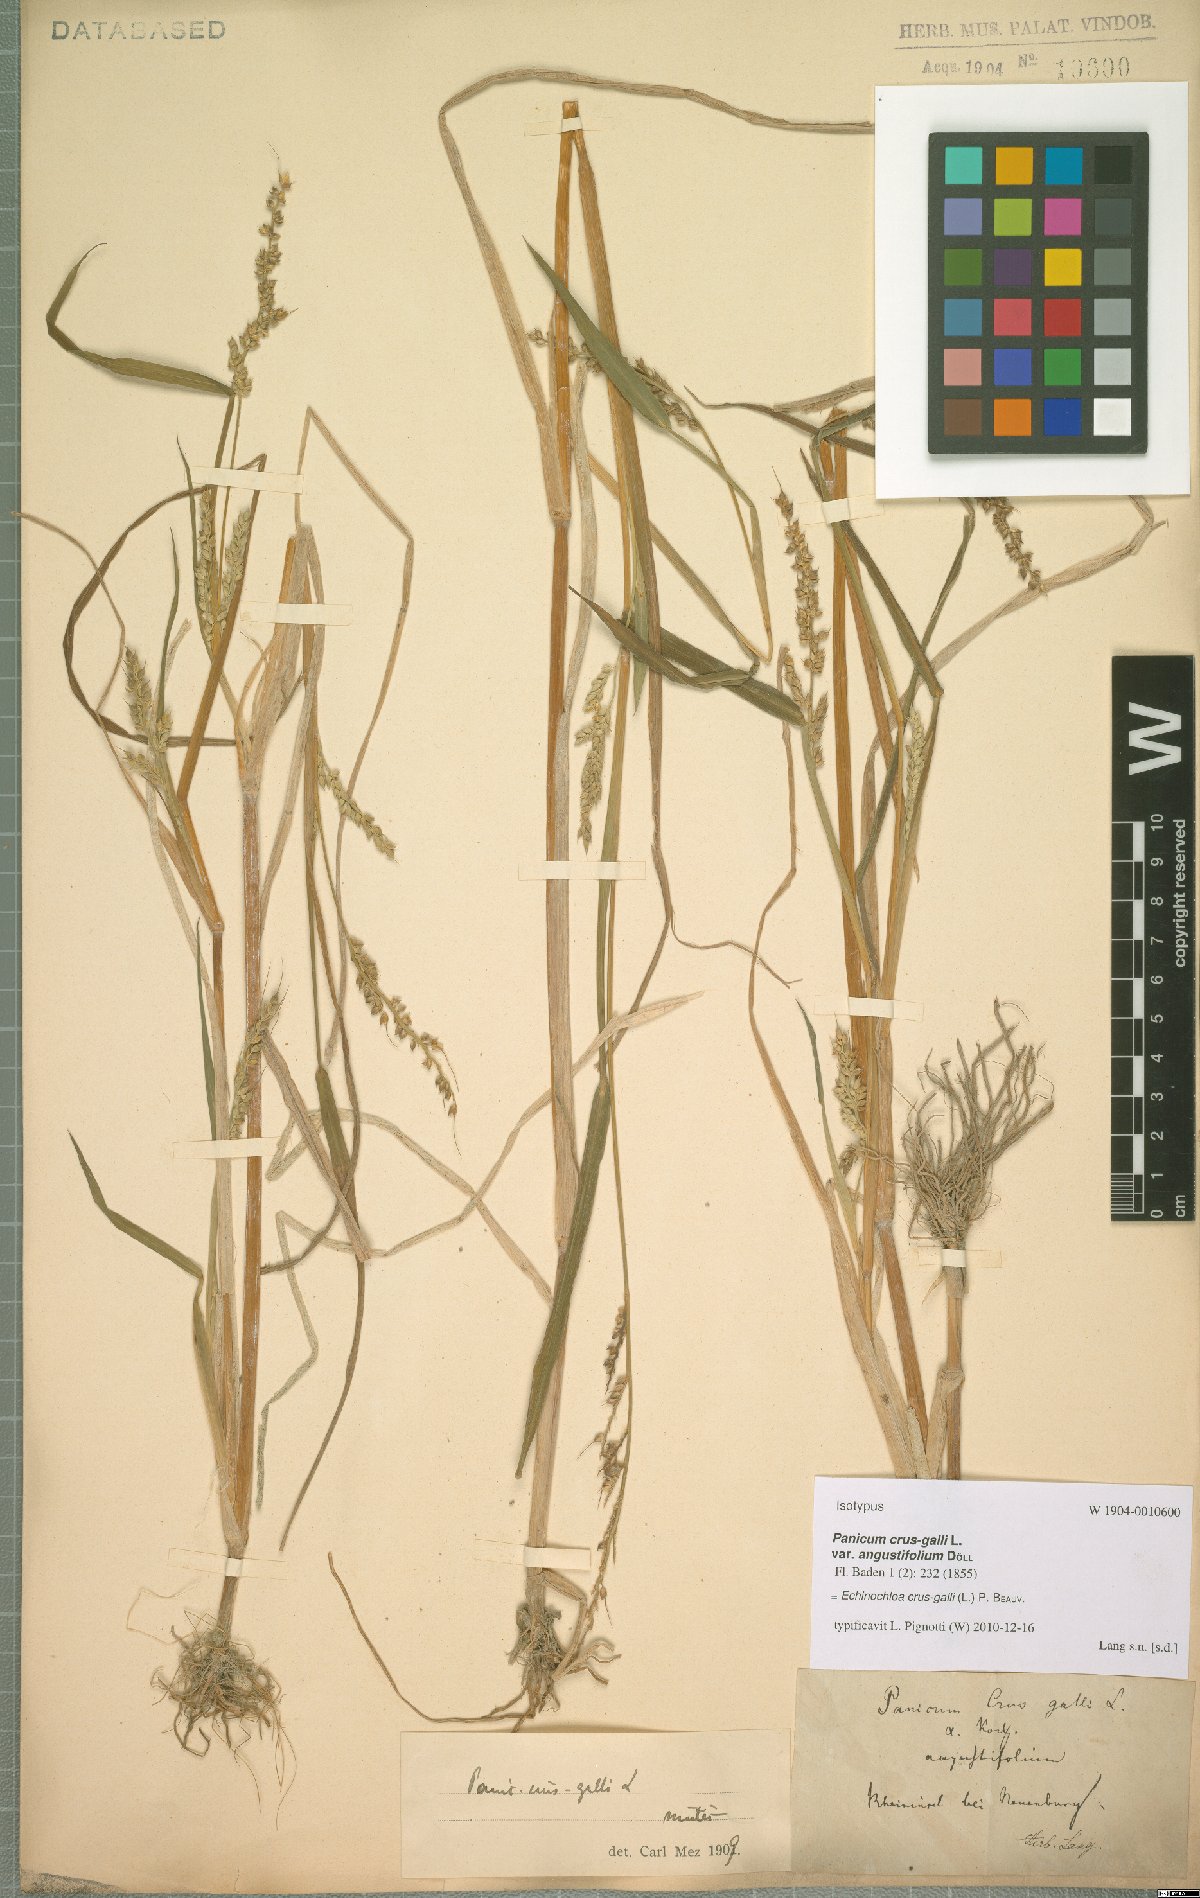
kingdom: Plantae
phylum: Tracheophyta
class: Liliopsida
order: Poales
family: Poaceae
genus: Echinochloa
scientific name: Echinochloa crus-galli
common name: Cockspur
